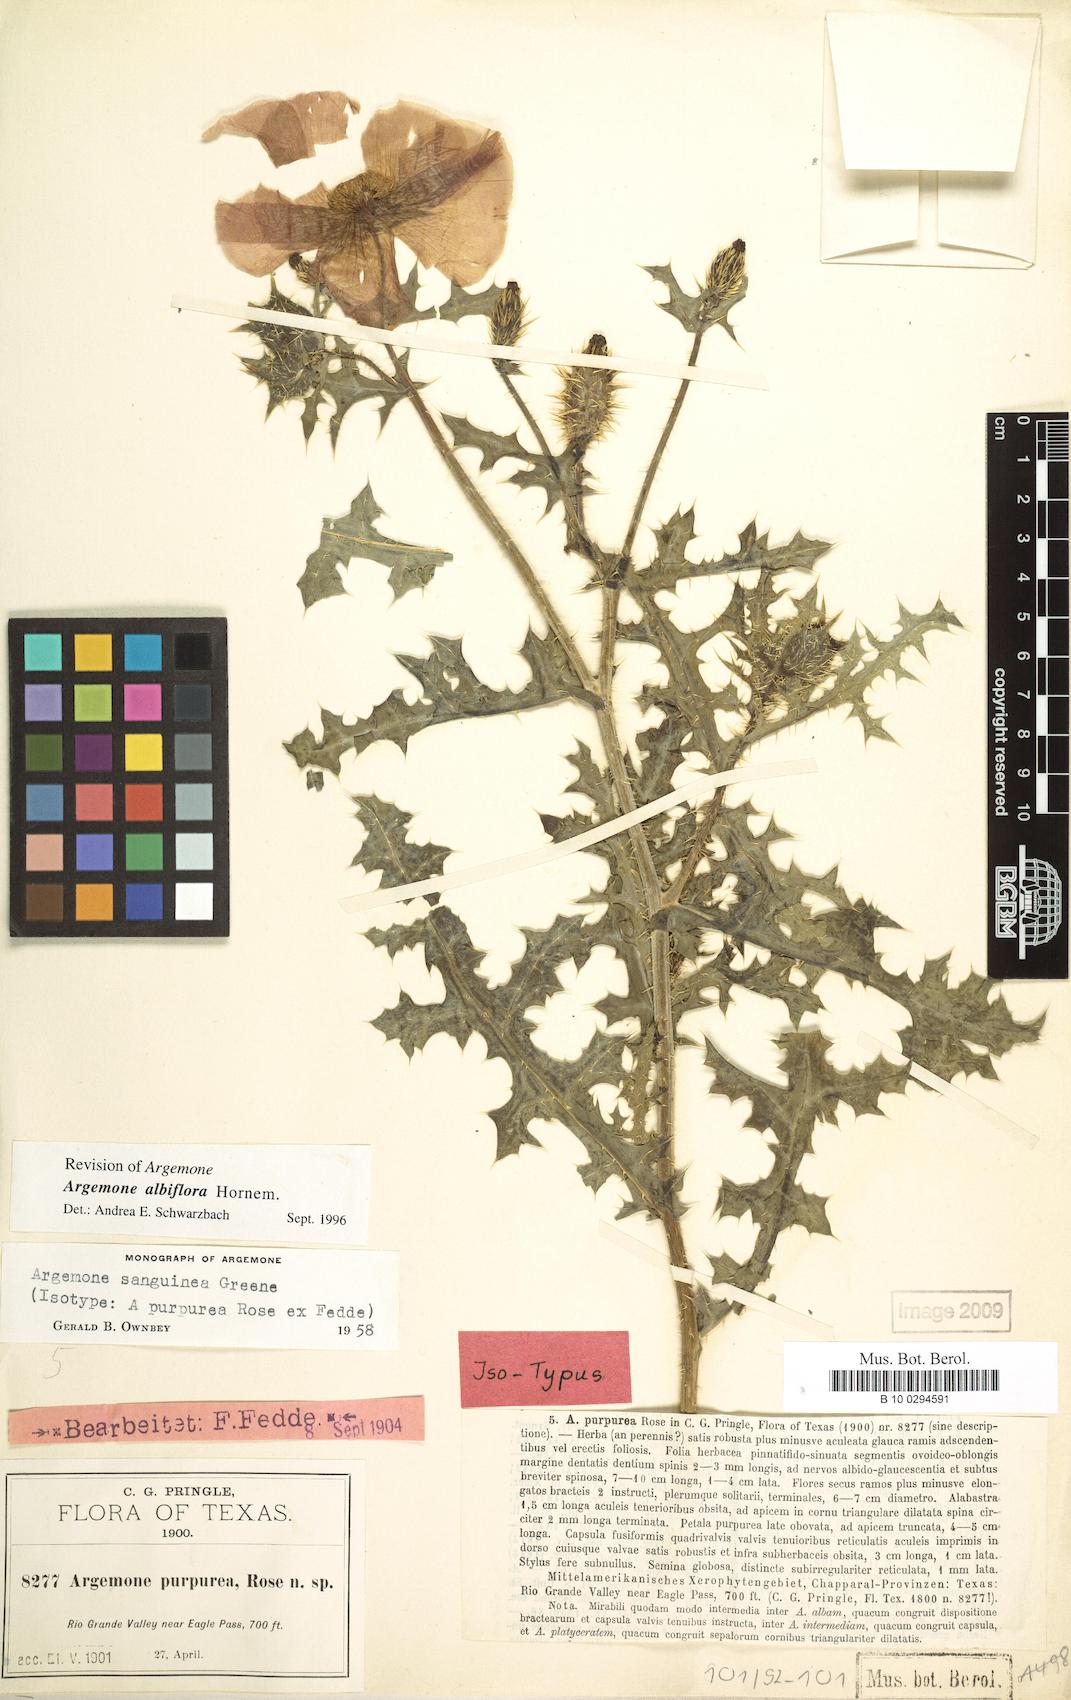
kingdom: Plantae
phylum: Tracheophyta
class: Magnoliopsida
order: Ranunculales
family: Papaveraceae
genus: Argemone
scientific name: Argemone albiflora
